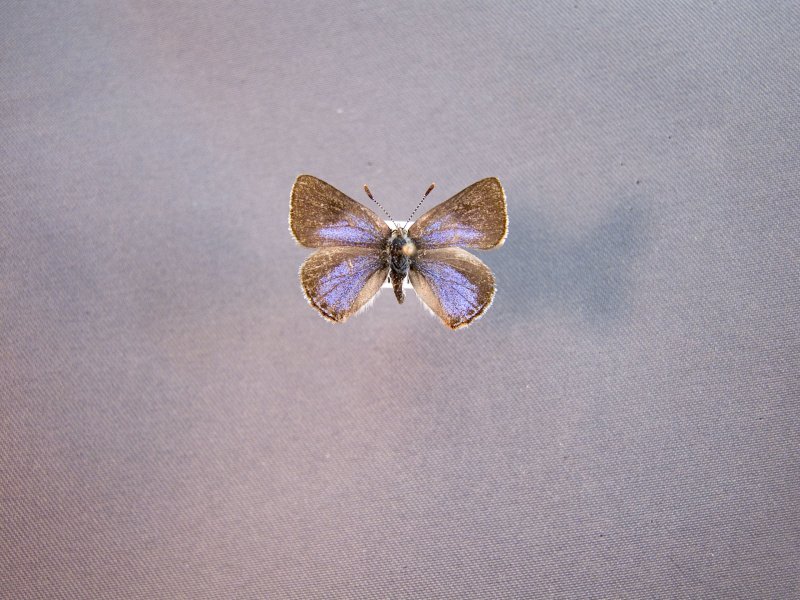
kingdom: Animalia
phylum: Arthropoda
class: Insecta
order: Lepidoptera
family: Lycaenidae
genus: Erora
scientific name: Erora laeta
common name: Early Hairstreak
